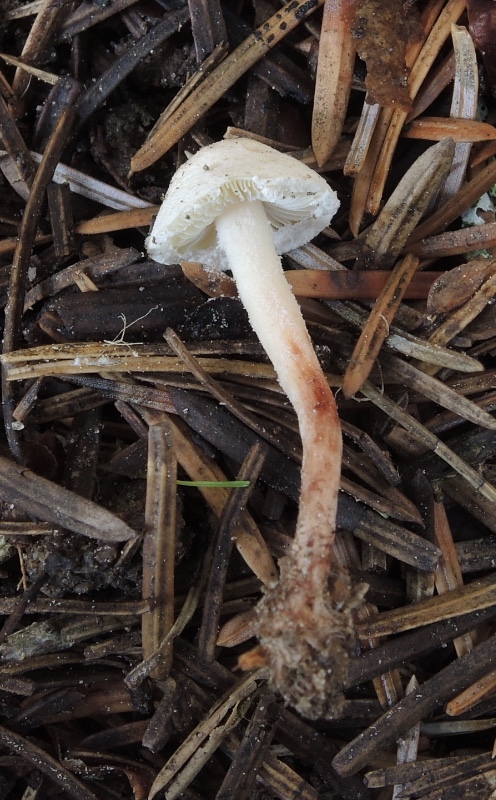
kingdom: Fungi
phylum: Basidiomycota
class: Agaricomycetes
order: Agaricales
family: Agaricaceae
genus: Cystolepiota
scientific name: Cystolepiota seminuda
